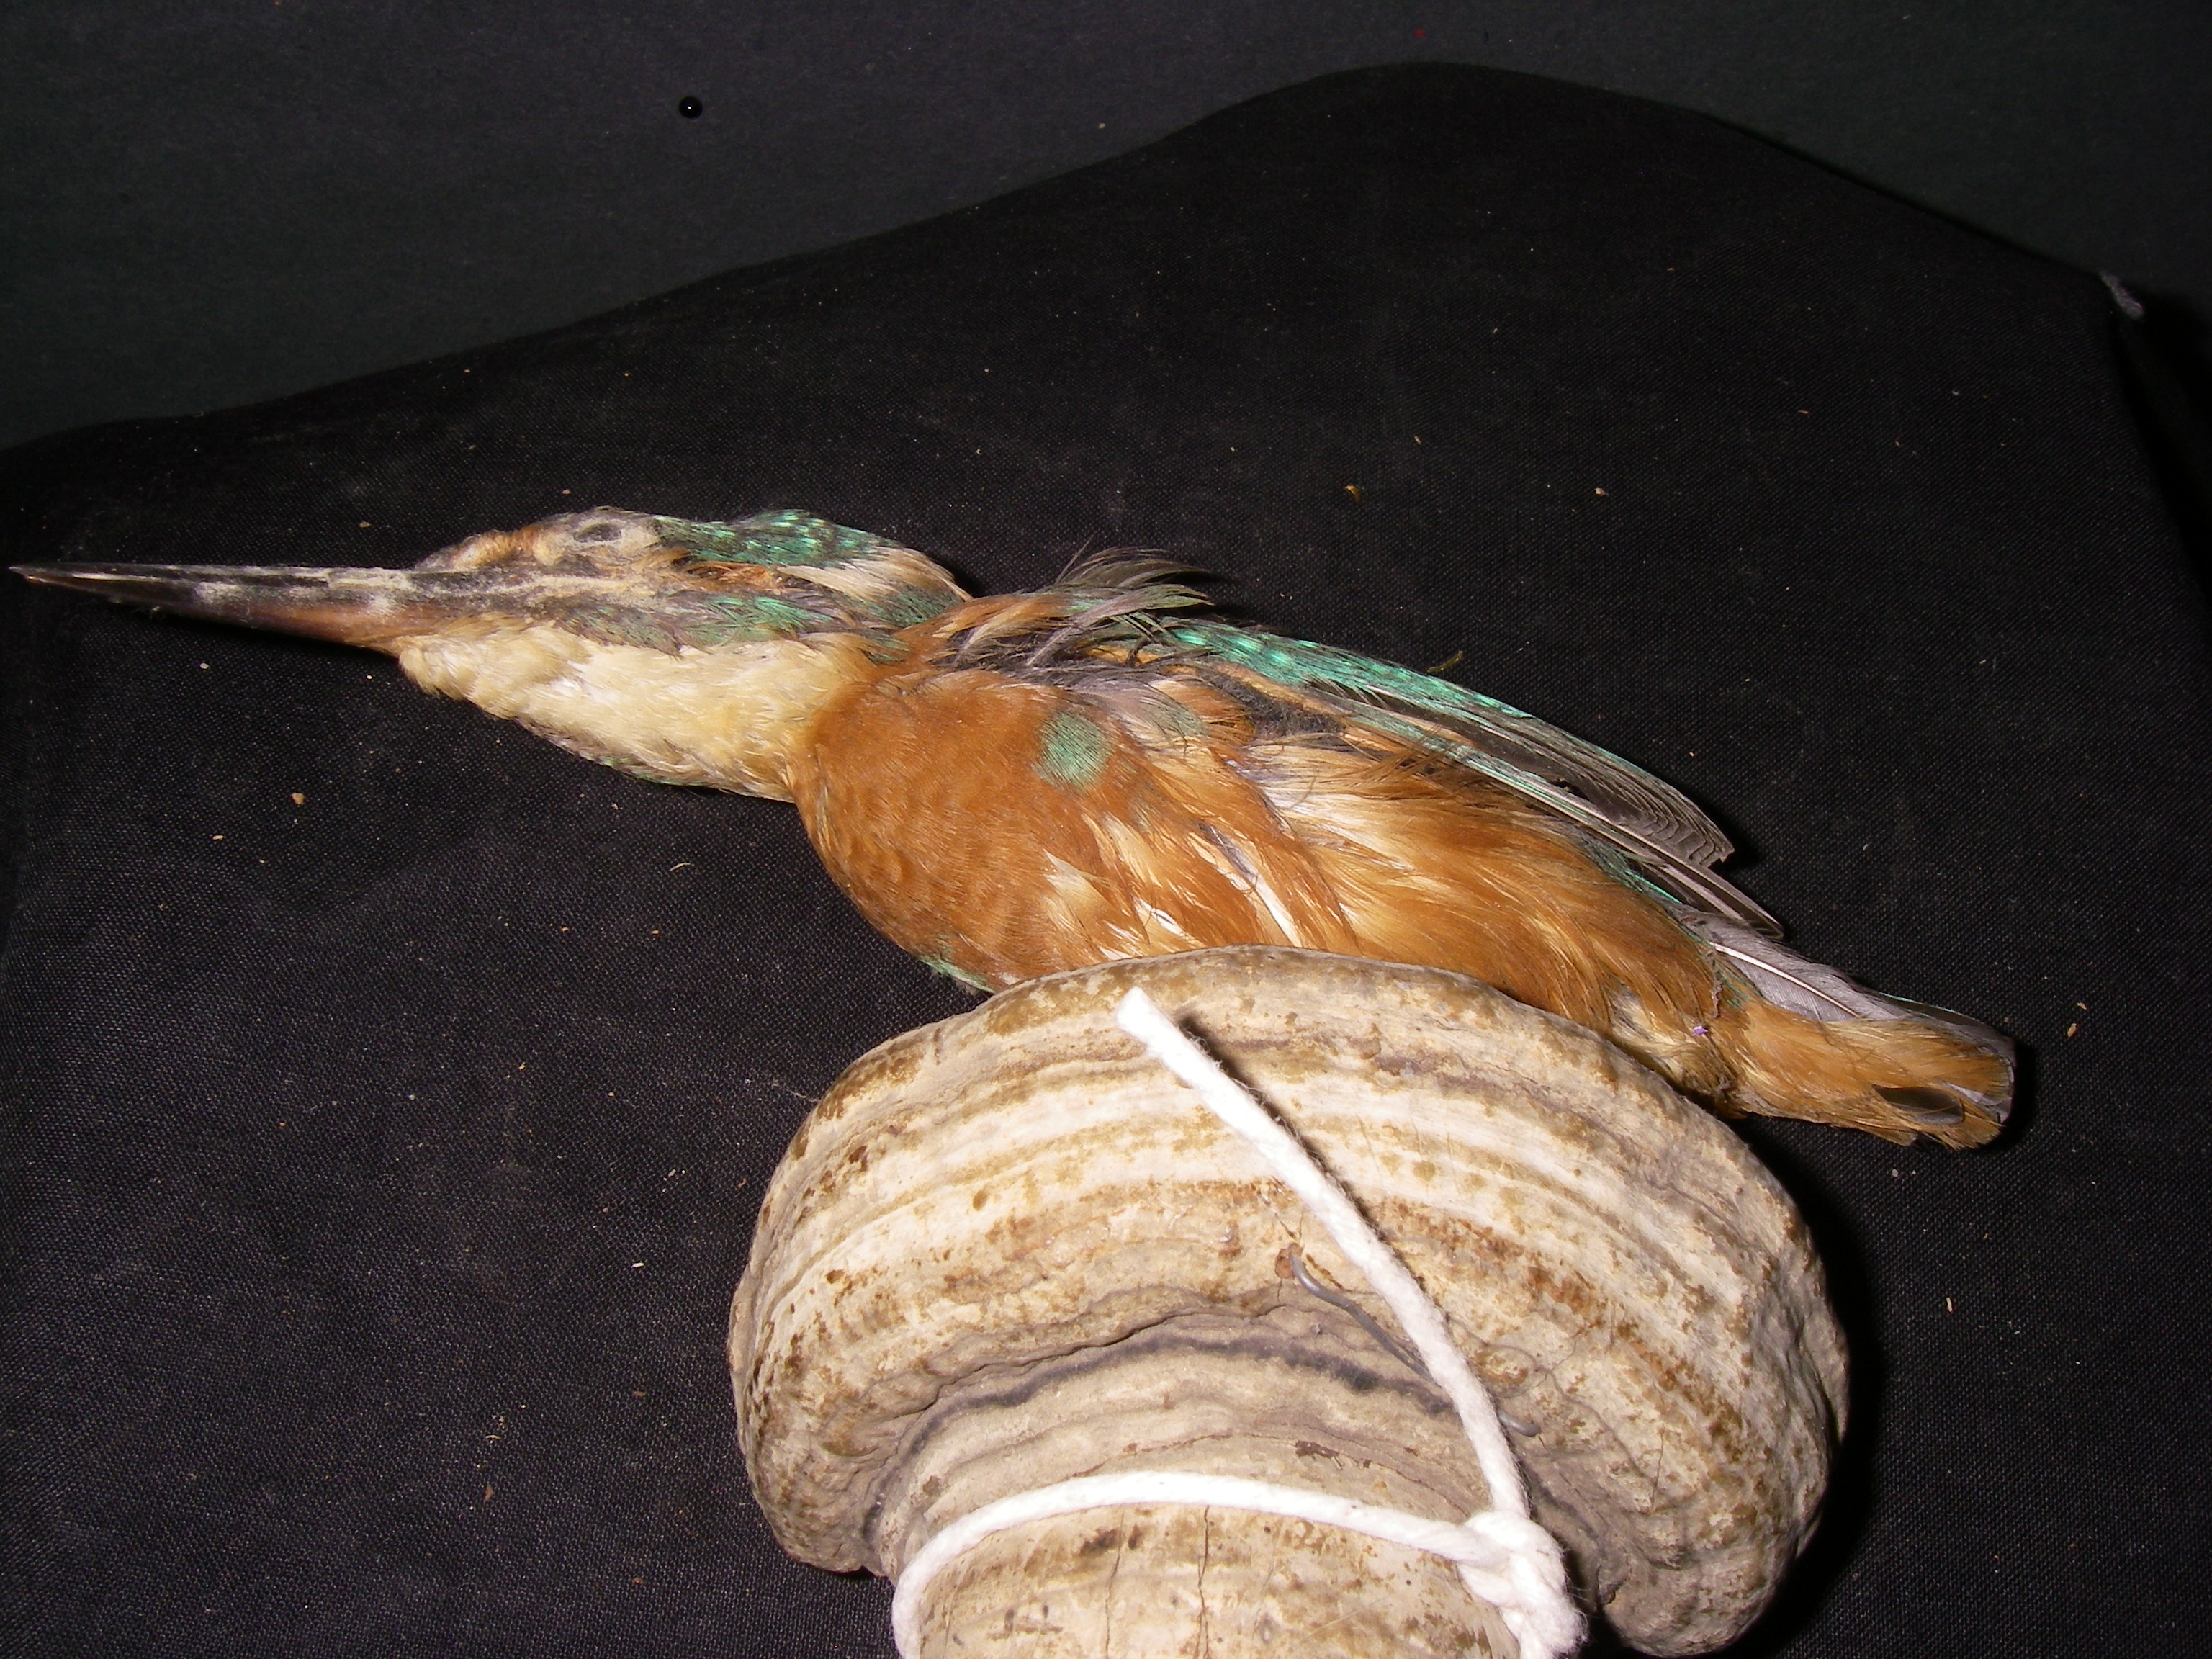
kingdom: Animalia
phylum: Chordata
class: Aves
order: Coraciiformes
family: Alcedinidae
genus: Alcedo
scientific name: Alcedo atthis
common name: Common kingfisher
